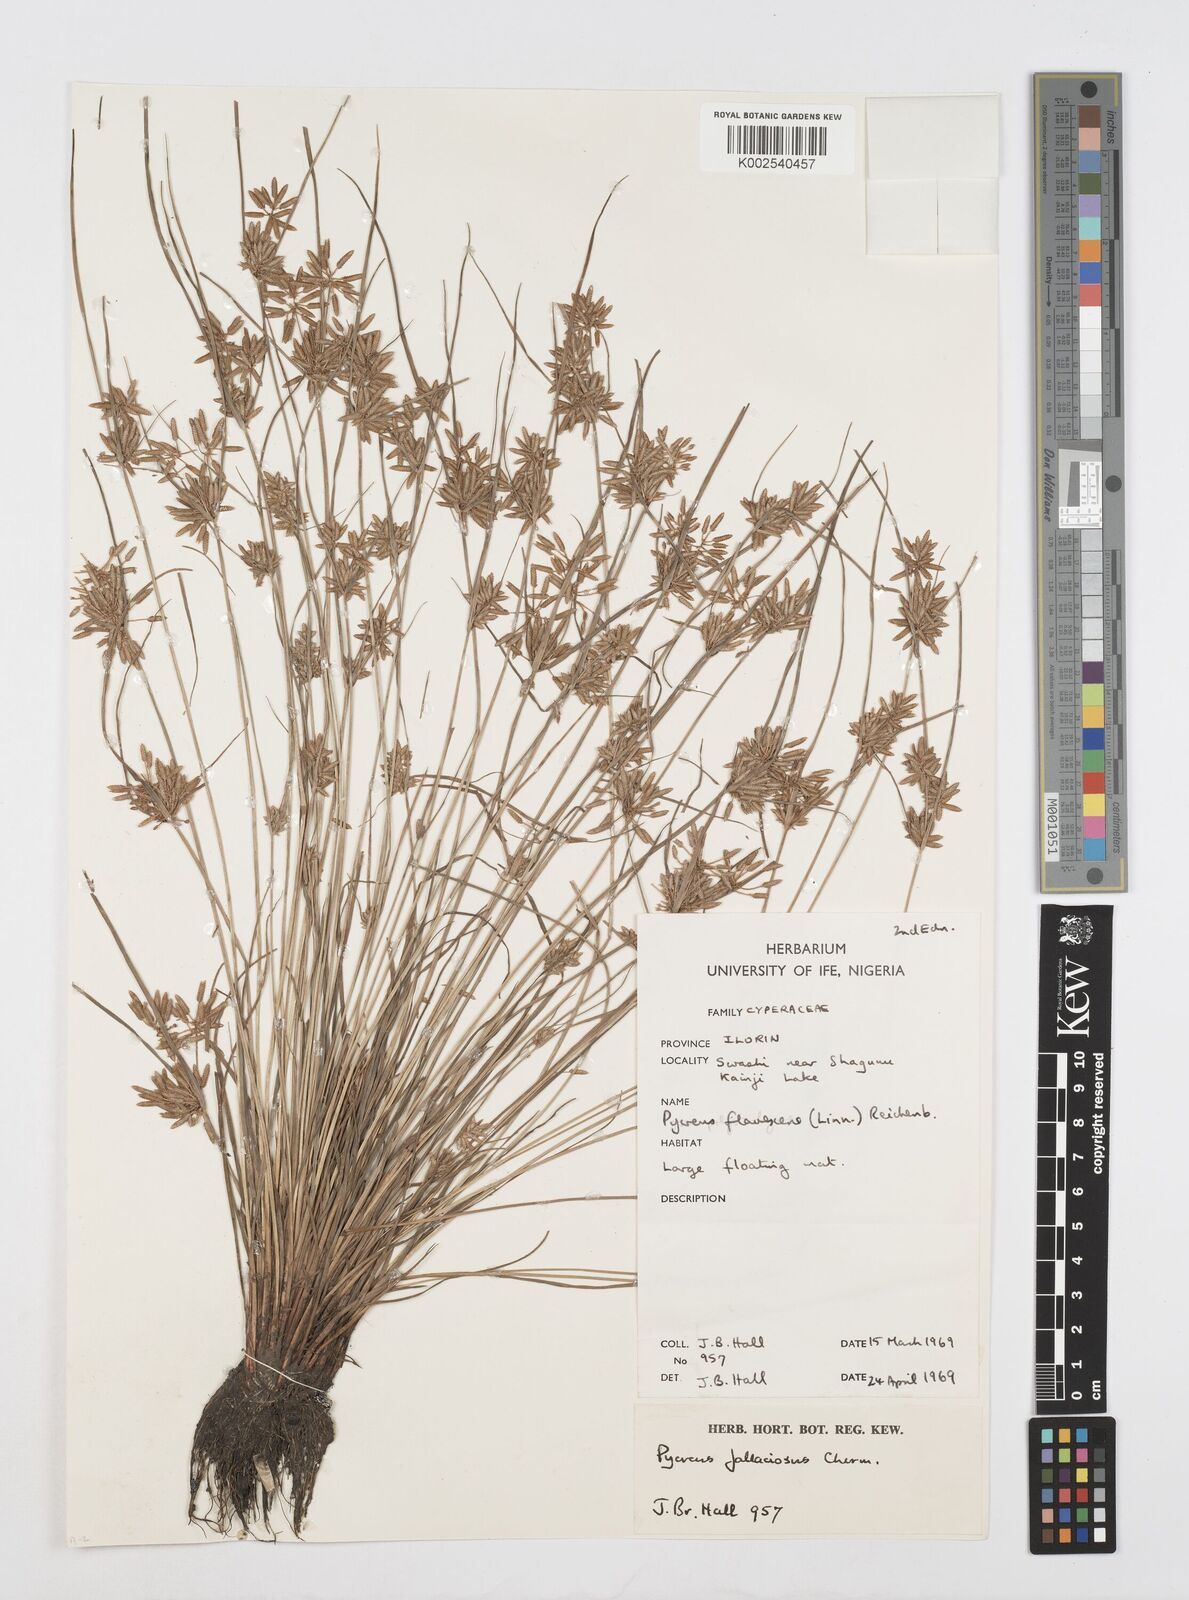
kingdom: Plantae
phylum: Tracheophyta
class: Liliopsida
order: Poales
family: Cyperaceae
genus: Cyperus
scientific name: Cyperus flavescens
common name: Yellow galingale
